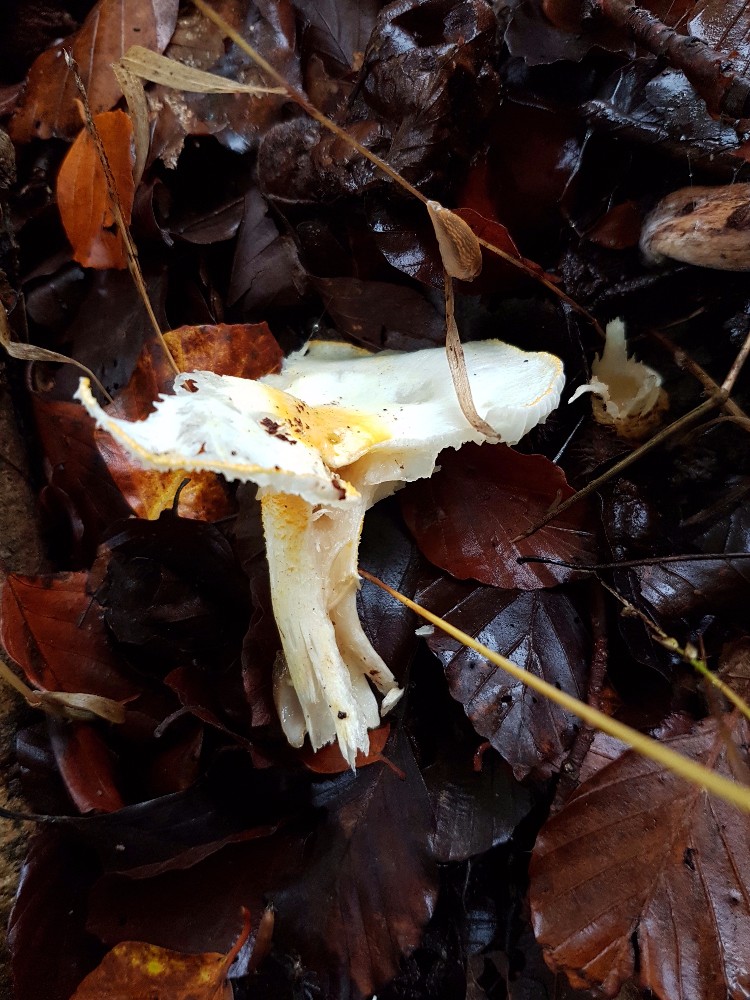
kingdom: Fungi
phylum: Basidiomycota
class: Agaricomycetes
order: Agaricales
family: Hygrophoraceae
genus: Hygrophorus
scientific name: Hygrophorus chrysodon
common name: gulfnugget sneglehat
